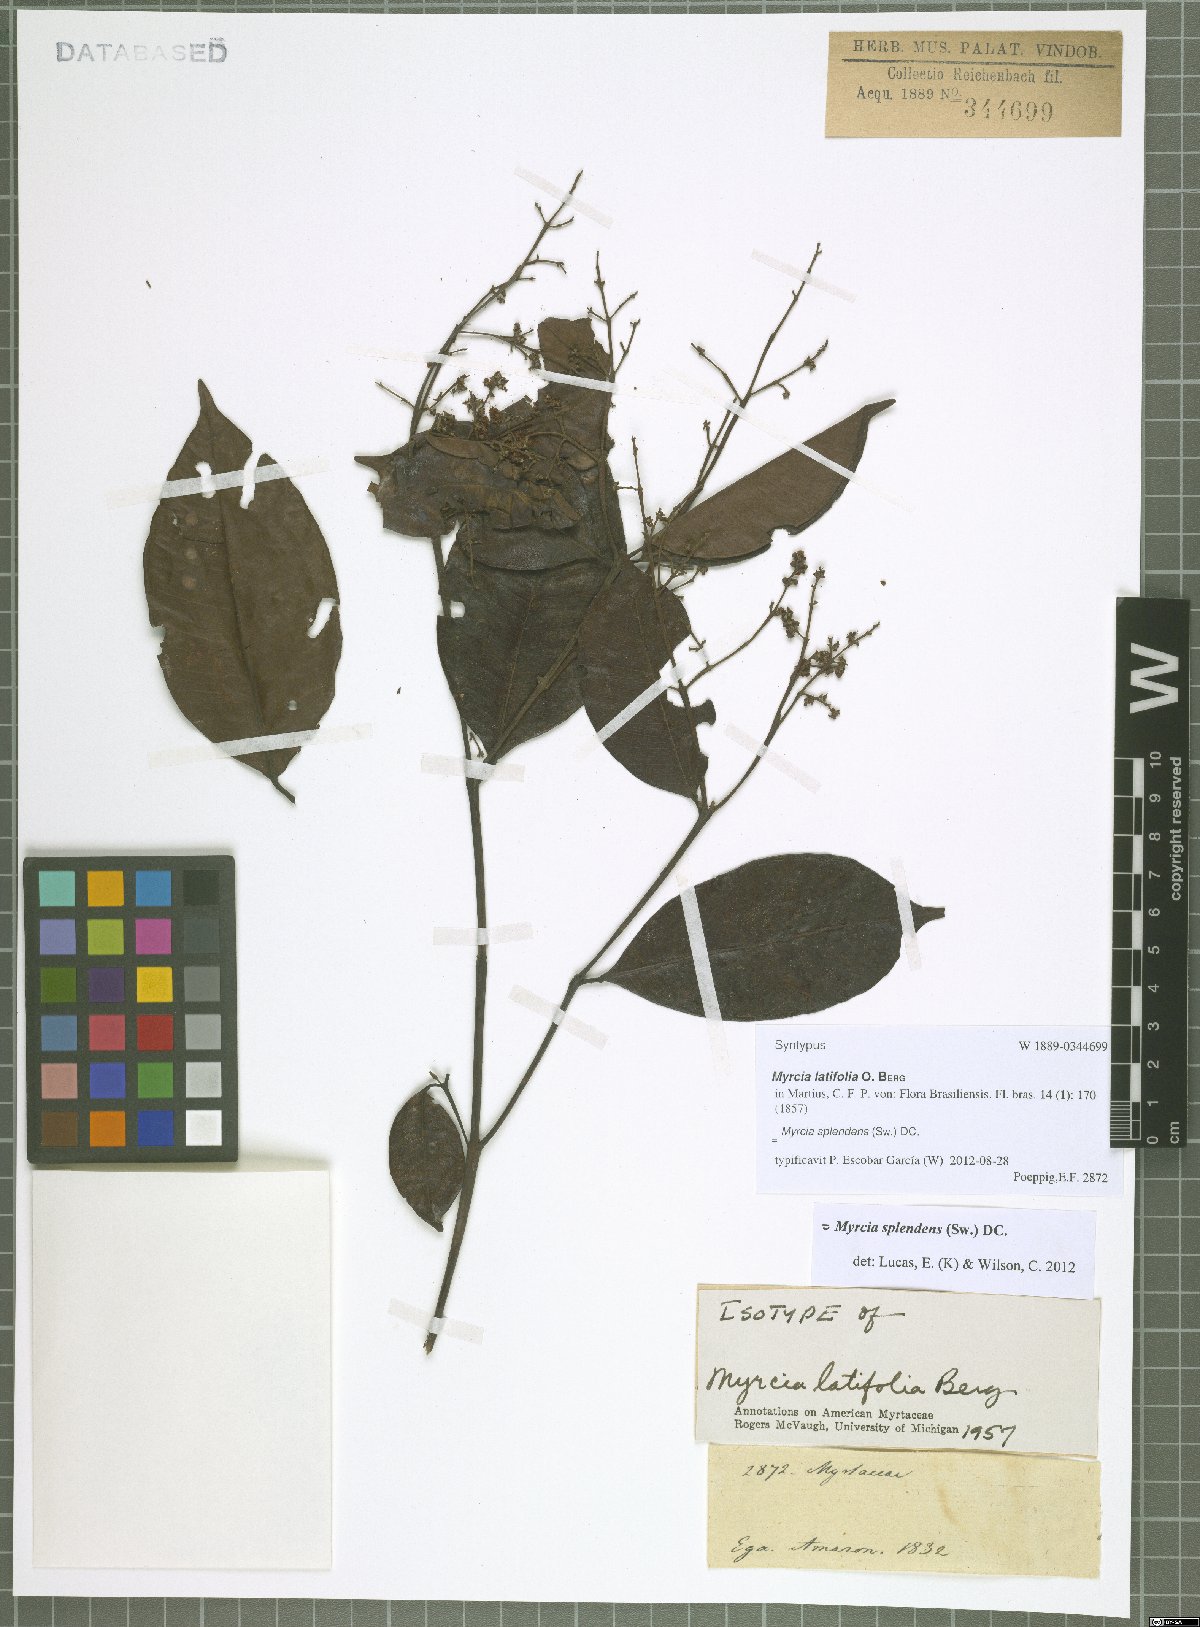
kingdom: Plantae
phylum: Tracheophyta
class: Magnoliopsida
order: Myrtales
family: Myrtaceae
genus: Myrcia
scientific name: Myrcia splendens
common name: Surinam cherry
